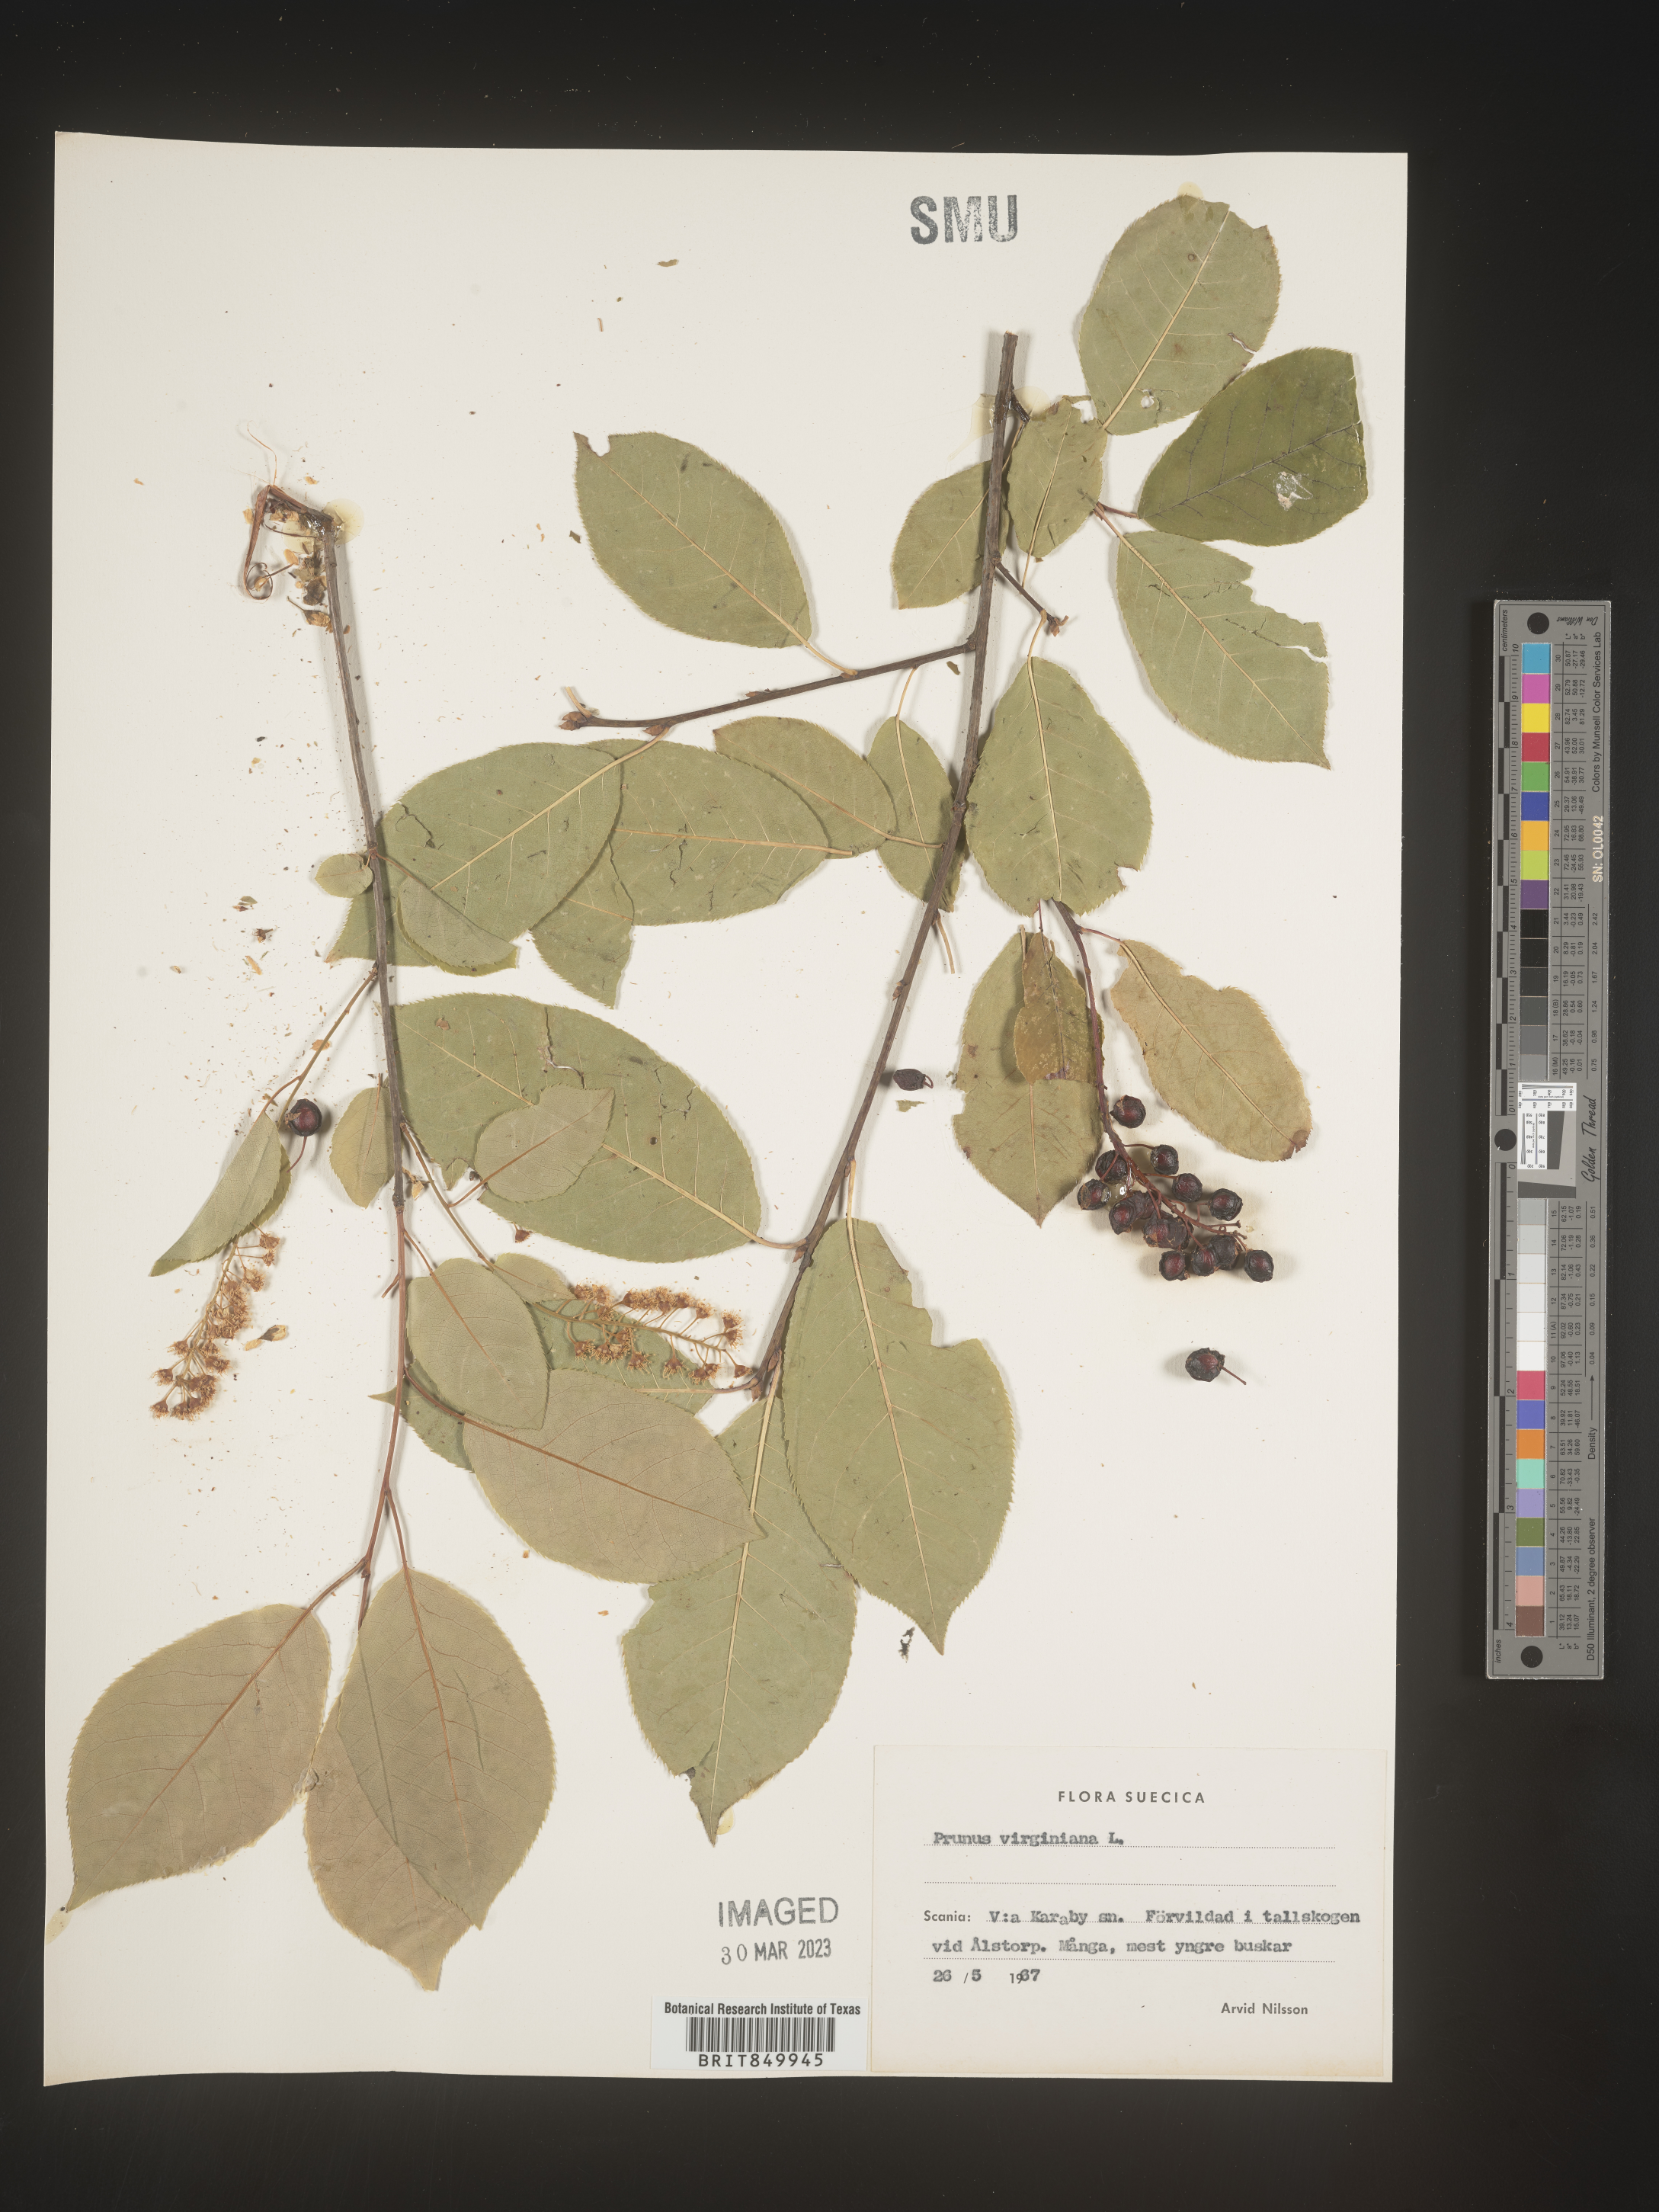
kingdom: Plantae
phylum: Tracheophyta
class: Magnoliopsida
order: Rosales
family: Rosaceae
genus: Pyrus
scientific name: Pyrus
